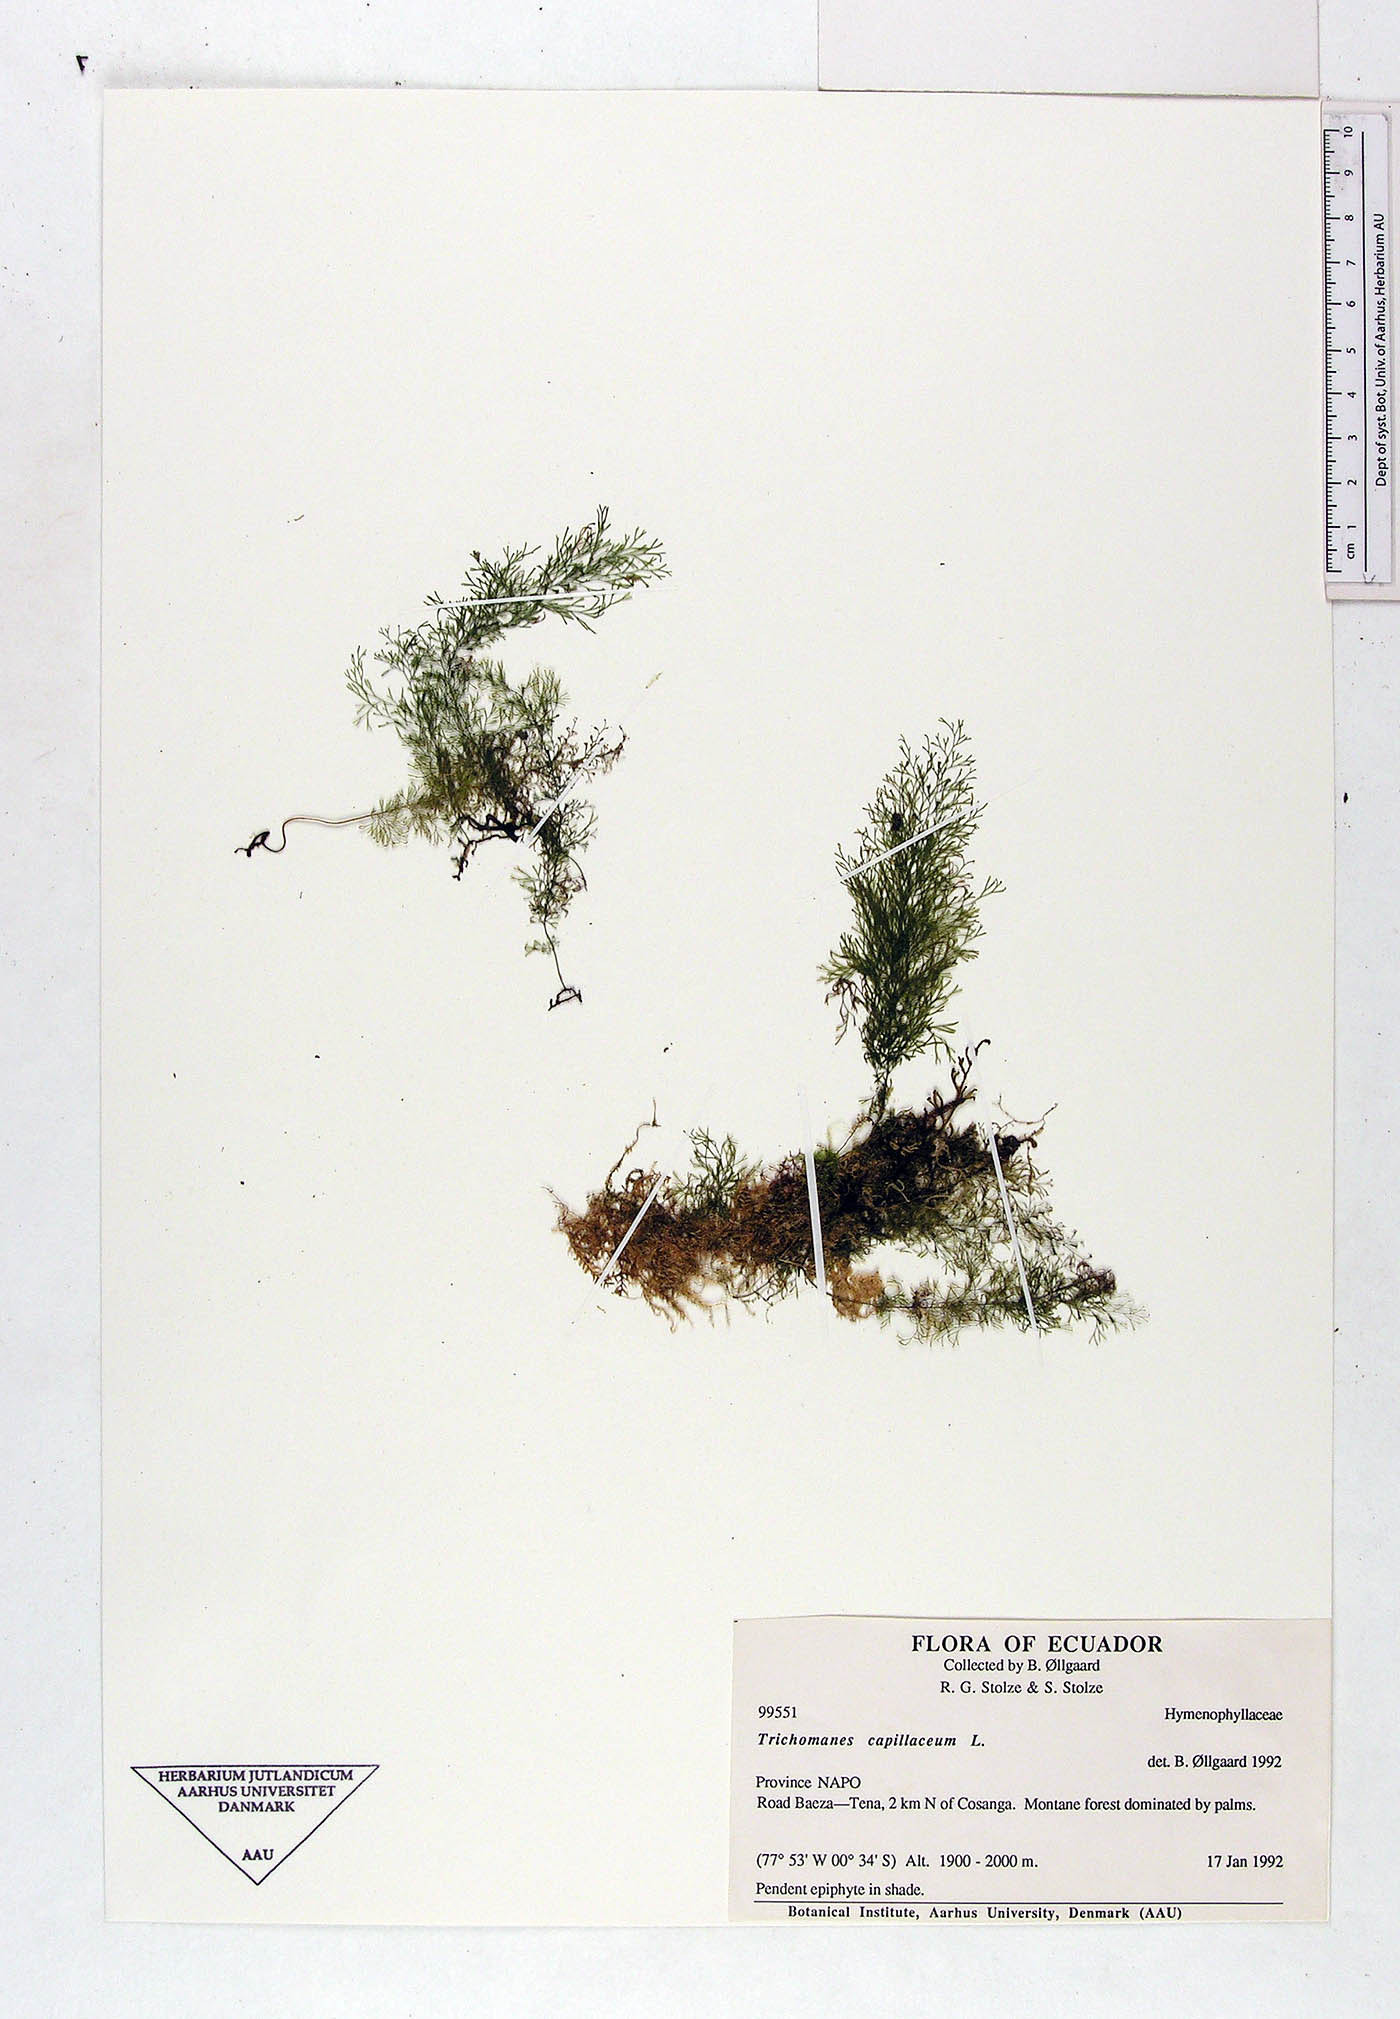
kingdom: Plantae
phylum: Tracheophyta
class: Polypodiopsida
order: Hymenophyllales
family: Hymenophyllaceae
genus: Polyphlebium
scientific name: Polyphlebium capillaceum
